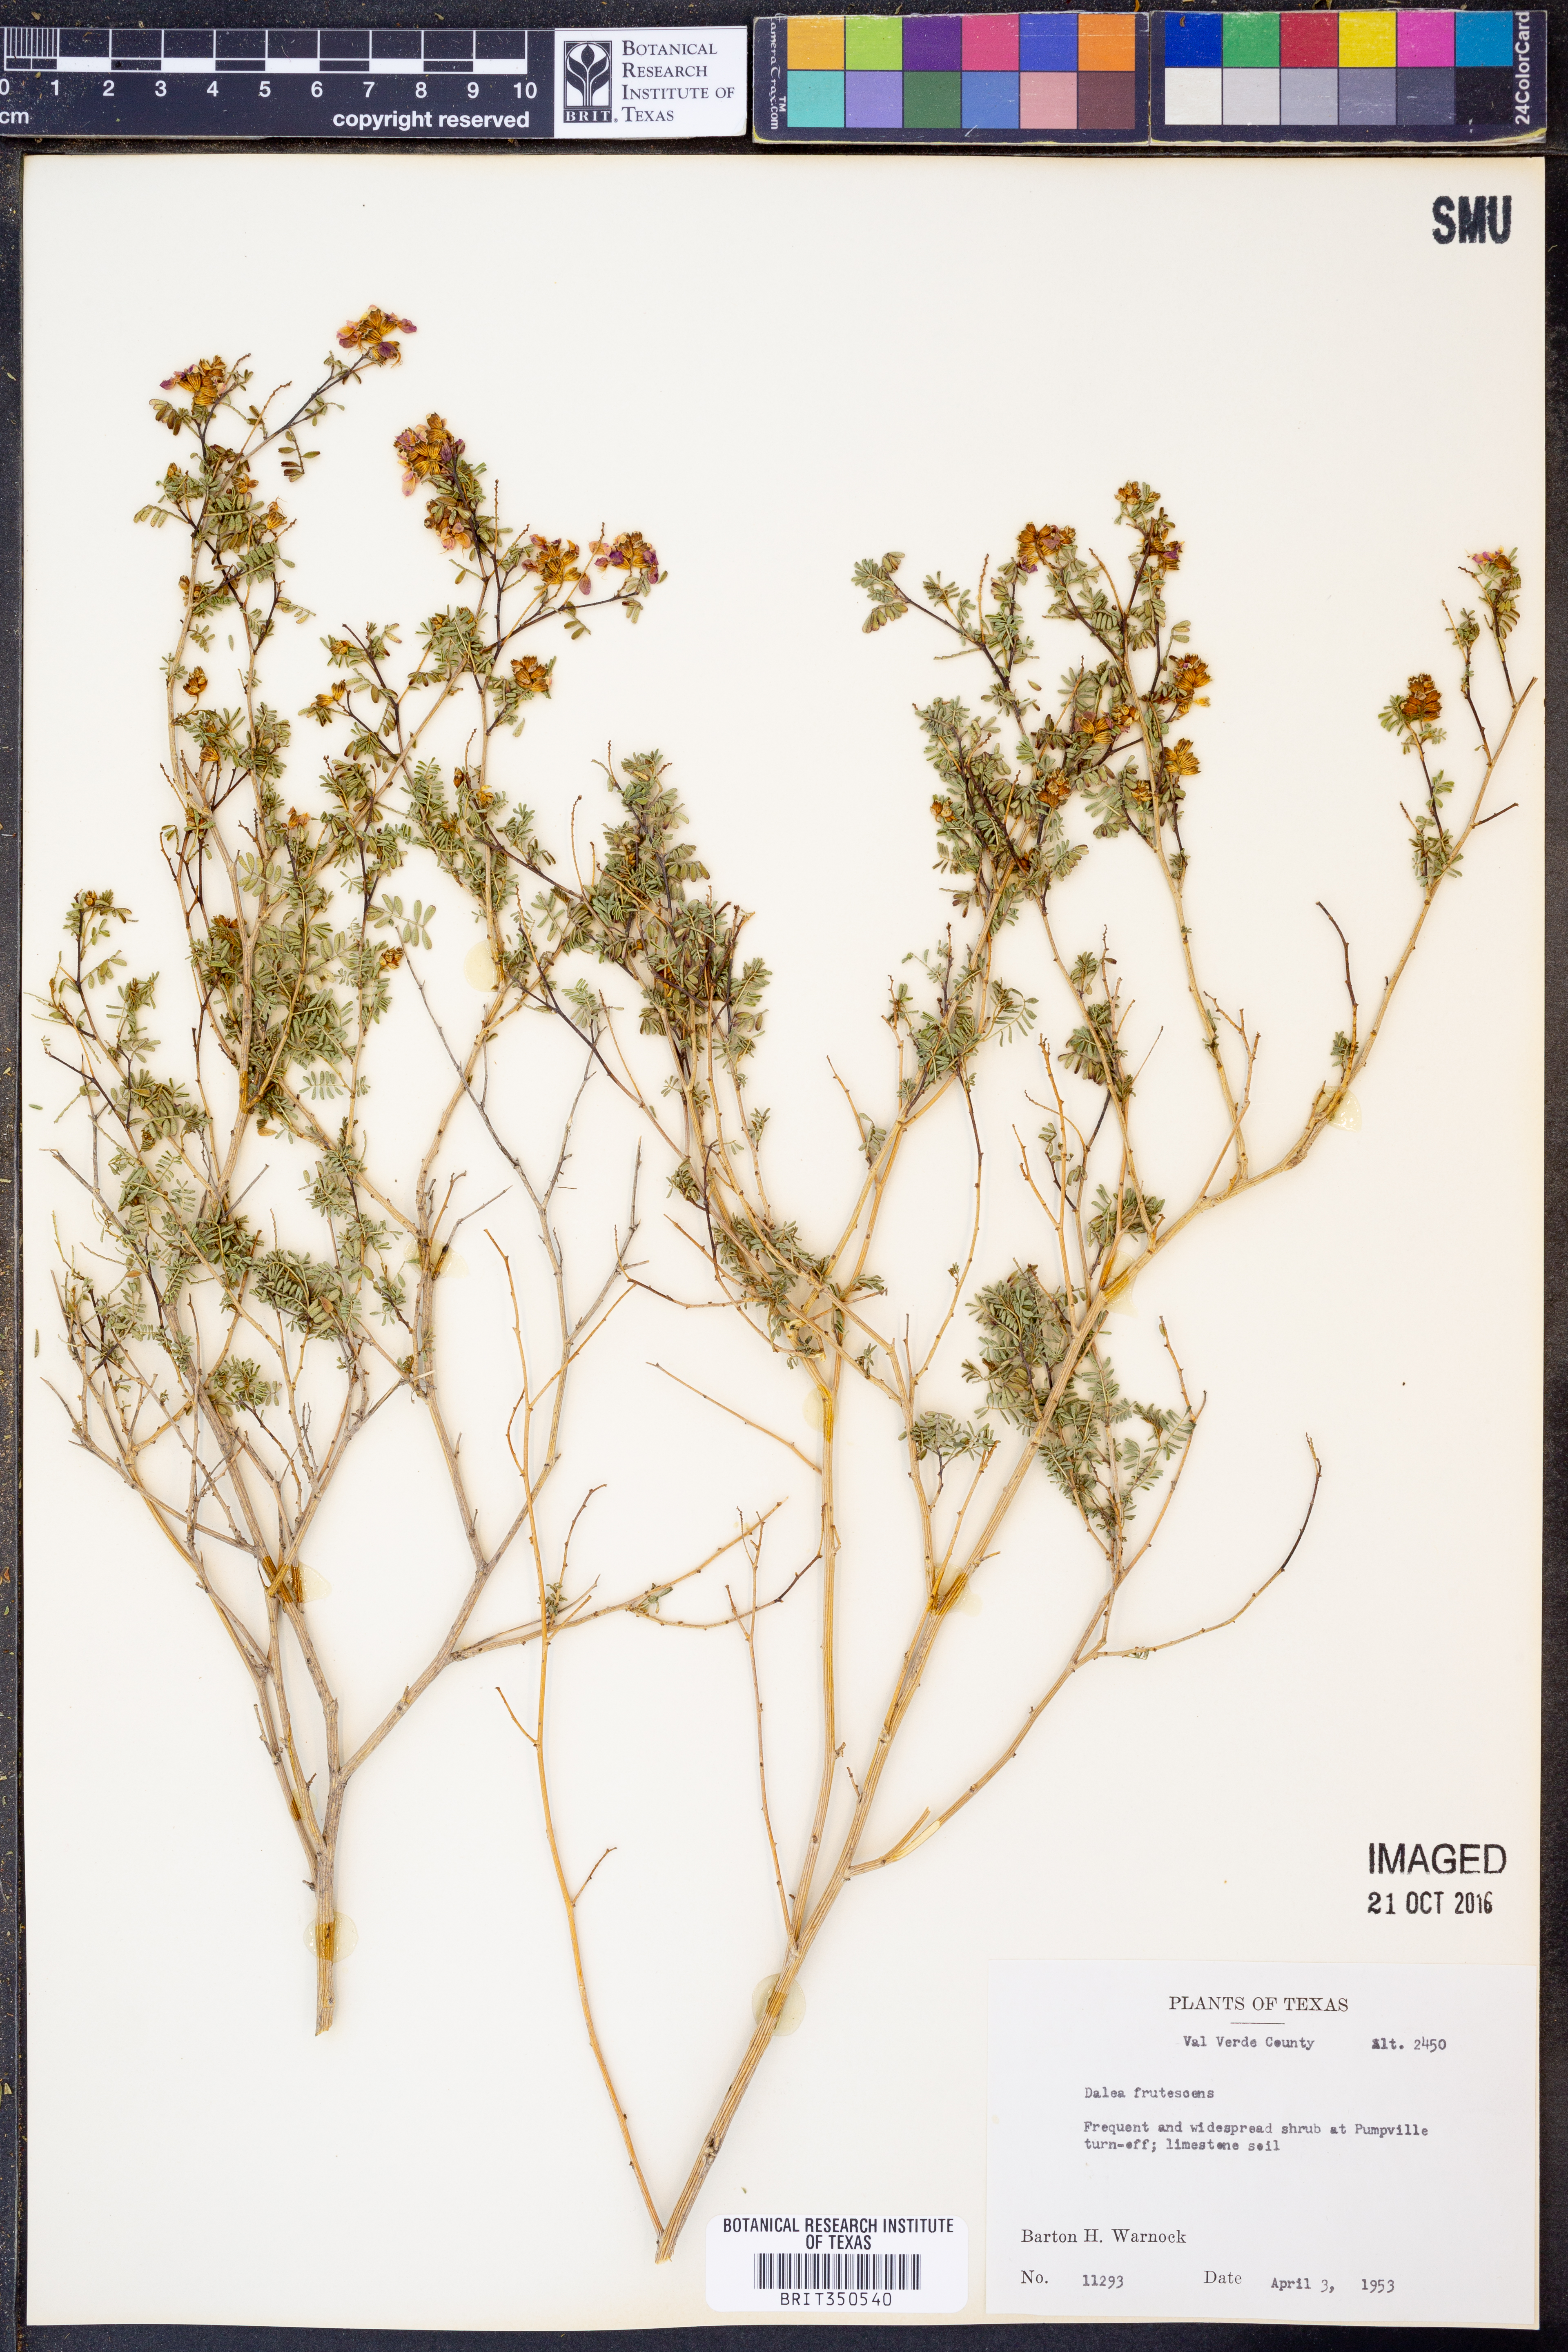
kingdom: Plantae
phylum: Tracheophyta
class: Magnoliopsida
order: Fabales
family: Fabaceae
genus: Dalea
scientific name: Dalea frutescens
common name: Black dalea
